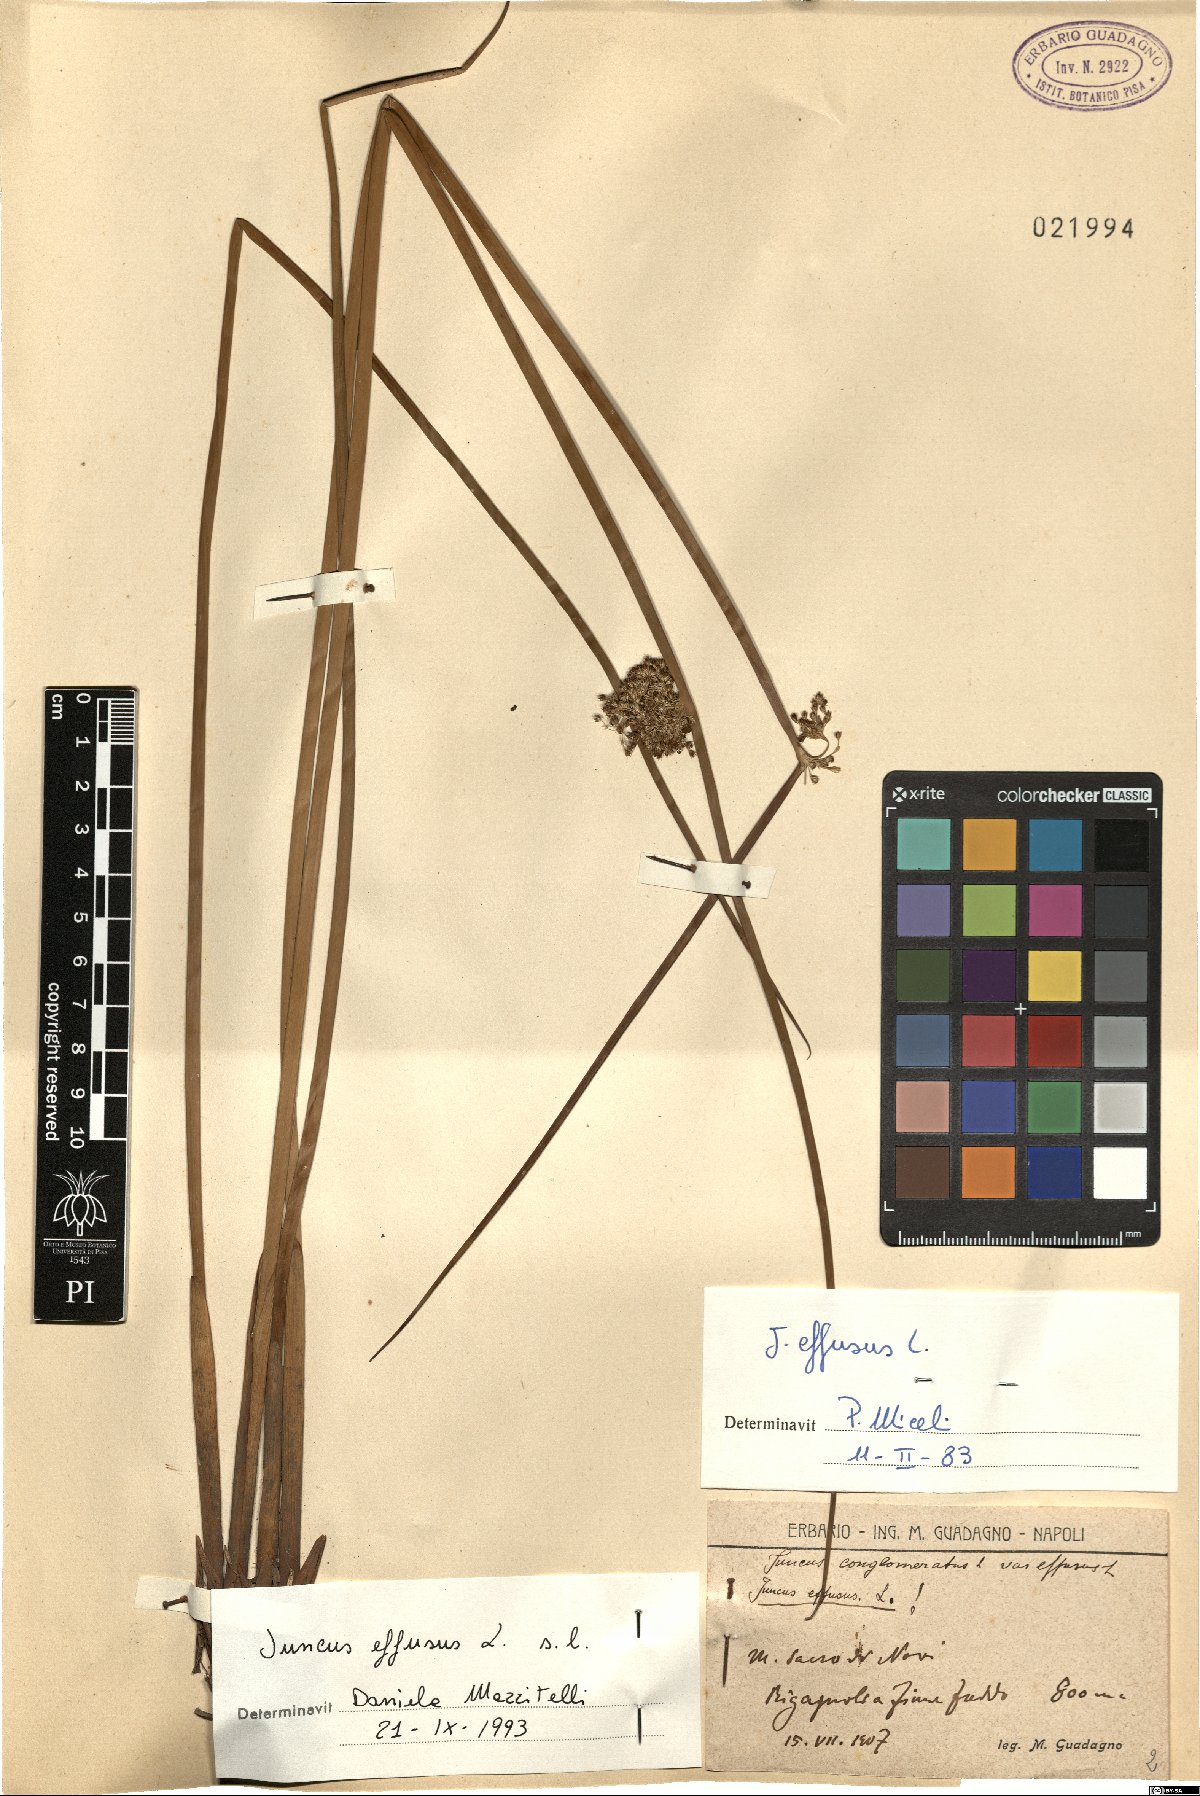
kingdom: Plantae
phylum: Tracheophyta
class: Liliopsida
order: Poales
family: Juncaceae
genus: Juncus
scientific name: Juncus effusus
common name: Soft rush
